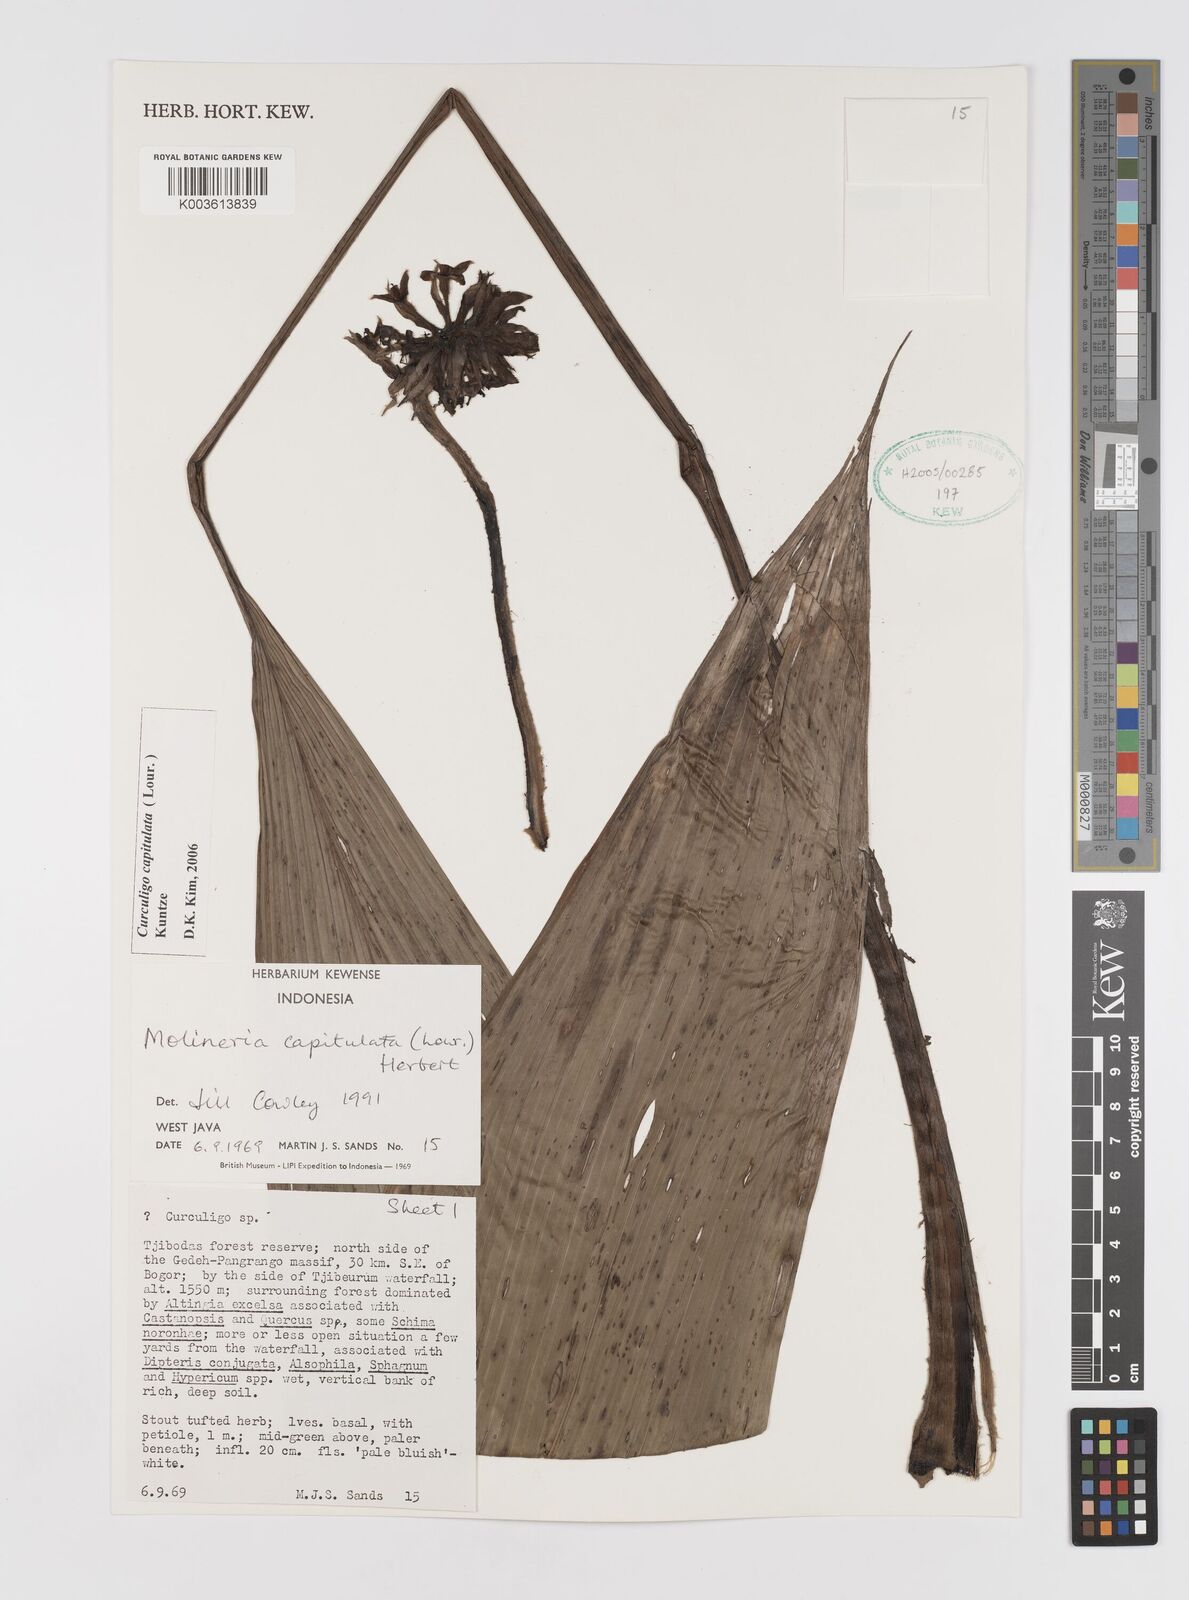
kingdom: Plantae
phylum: Tracheophyta
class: Liliopsida
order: Asparagales
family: Hypoxidaceae
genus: Curculigo
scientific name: Curculigo capitulata
